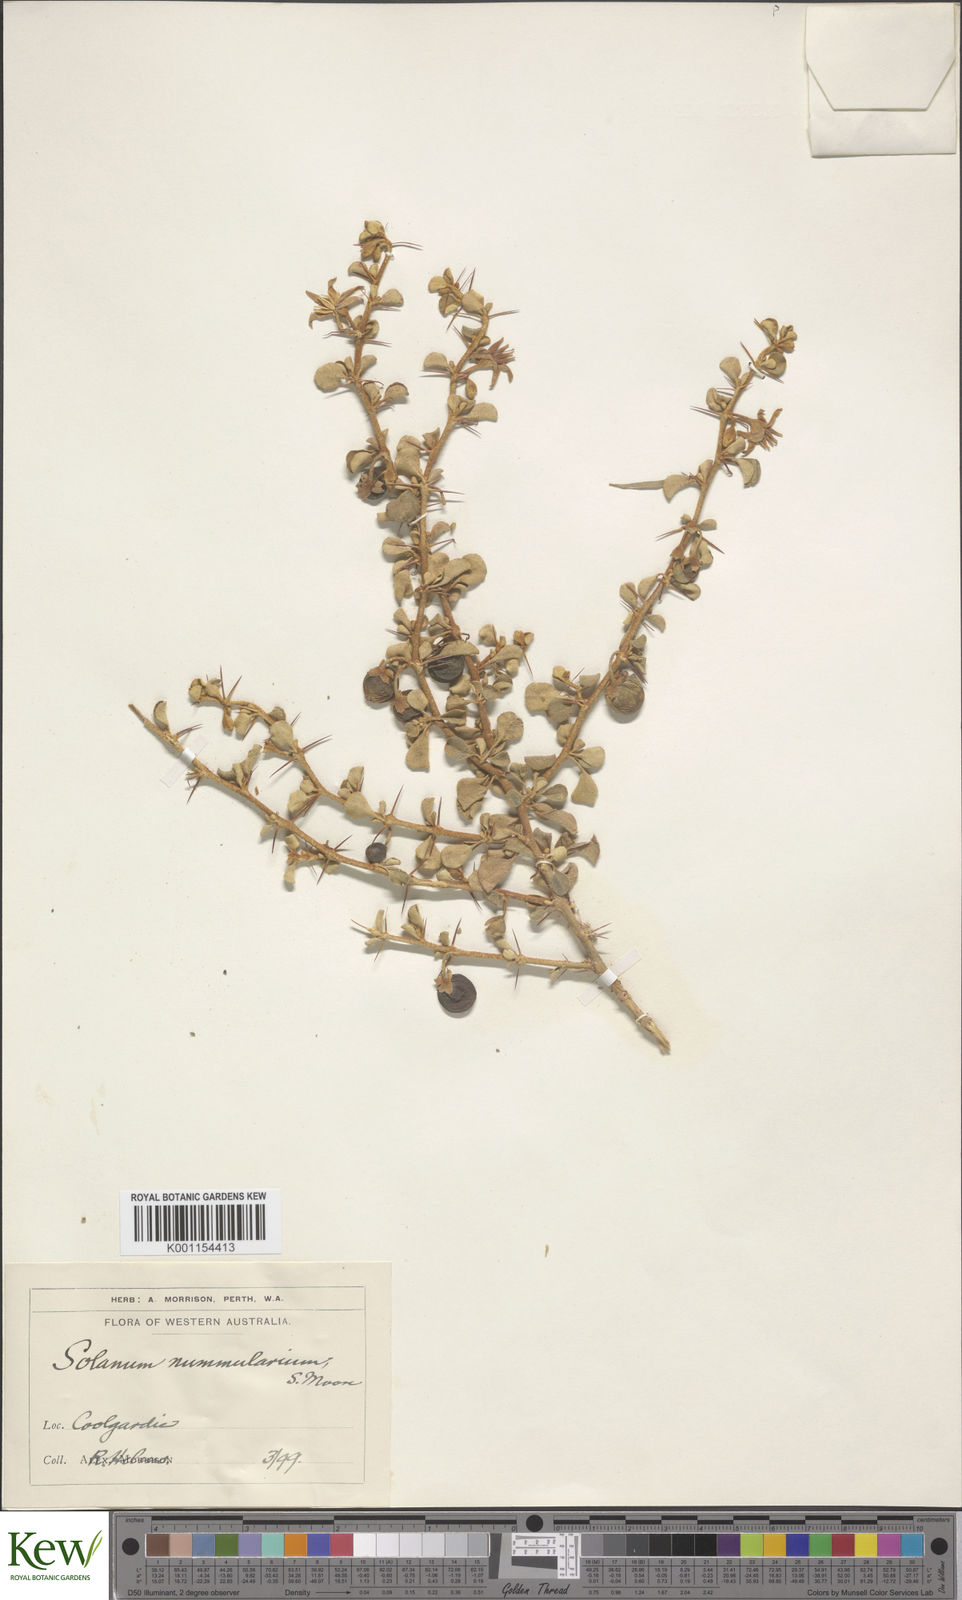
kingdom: Plantae
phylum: Tracheophyta
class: Magnoliopsida
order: Solanales
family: Solanaceae
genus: Solanum
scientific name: Solanum nummularium
